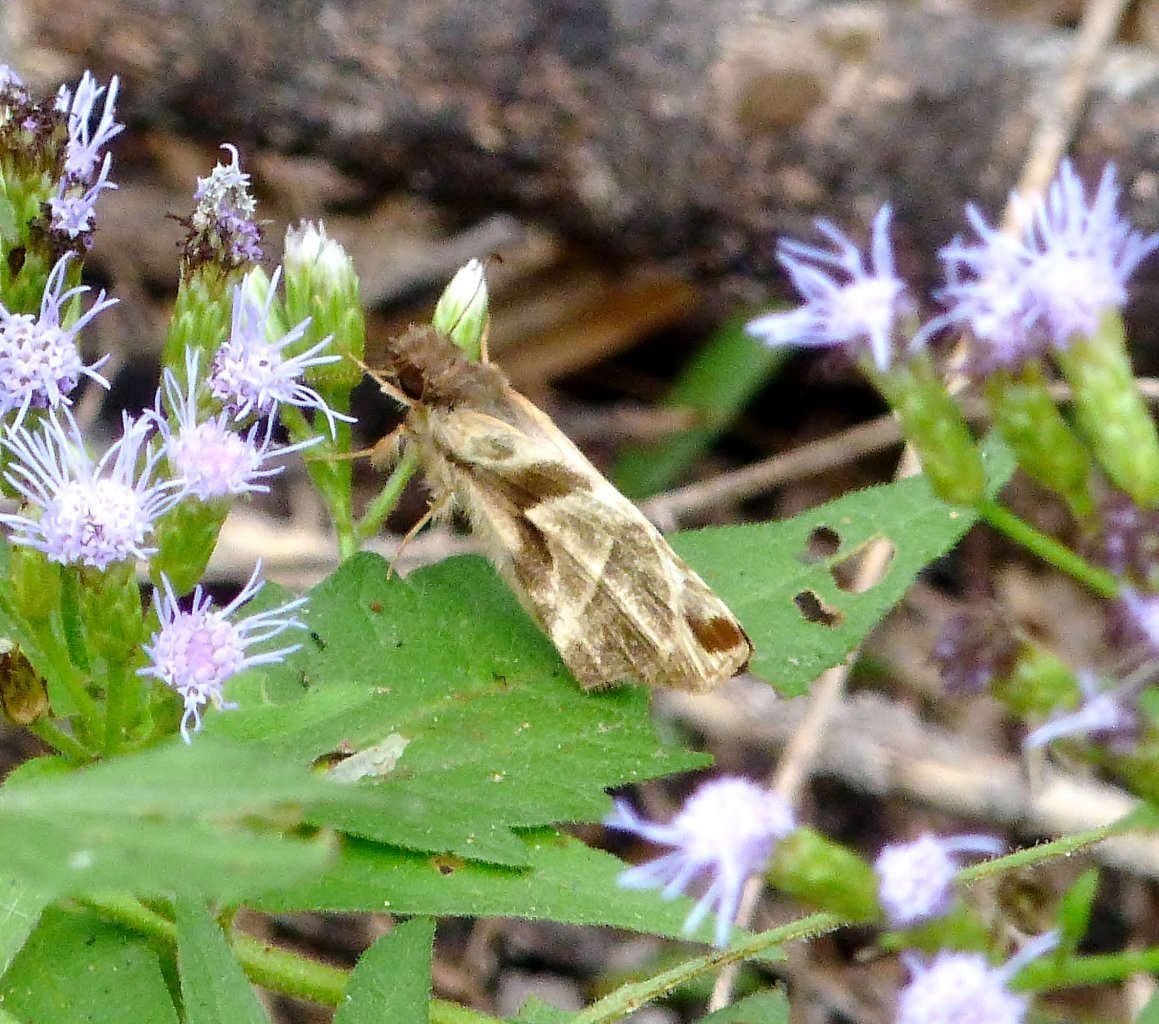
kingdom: Animalia
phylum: Arthropoda
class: Insecta
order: Lepidoptera
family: Hesperiidae
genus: Heliopetes
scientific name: Heliopetes laviana
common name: Laviana White-Skipper
